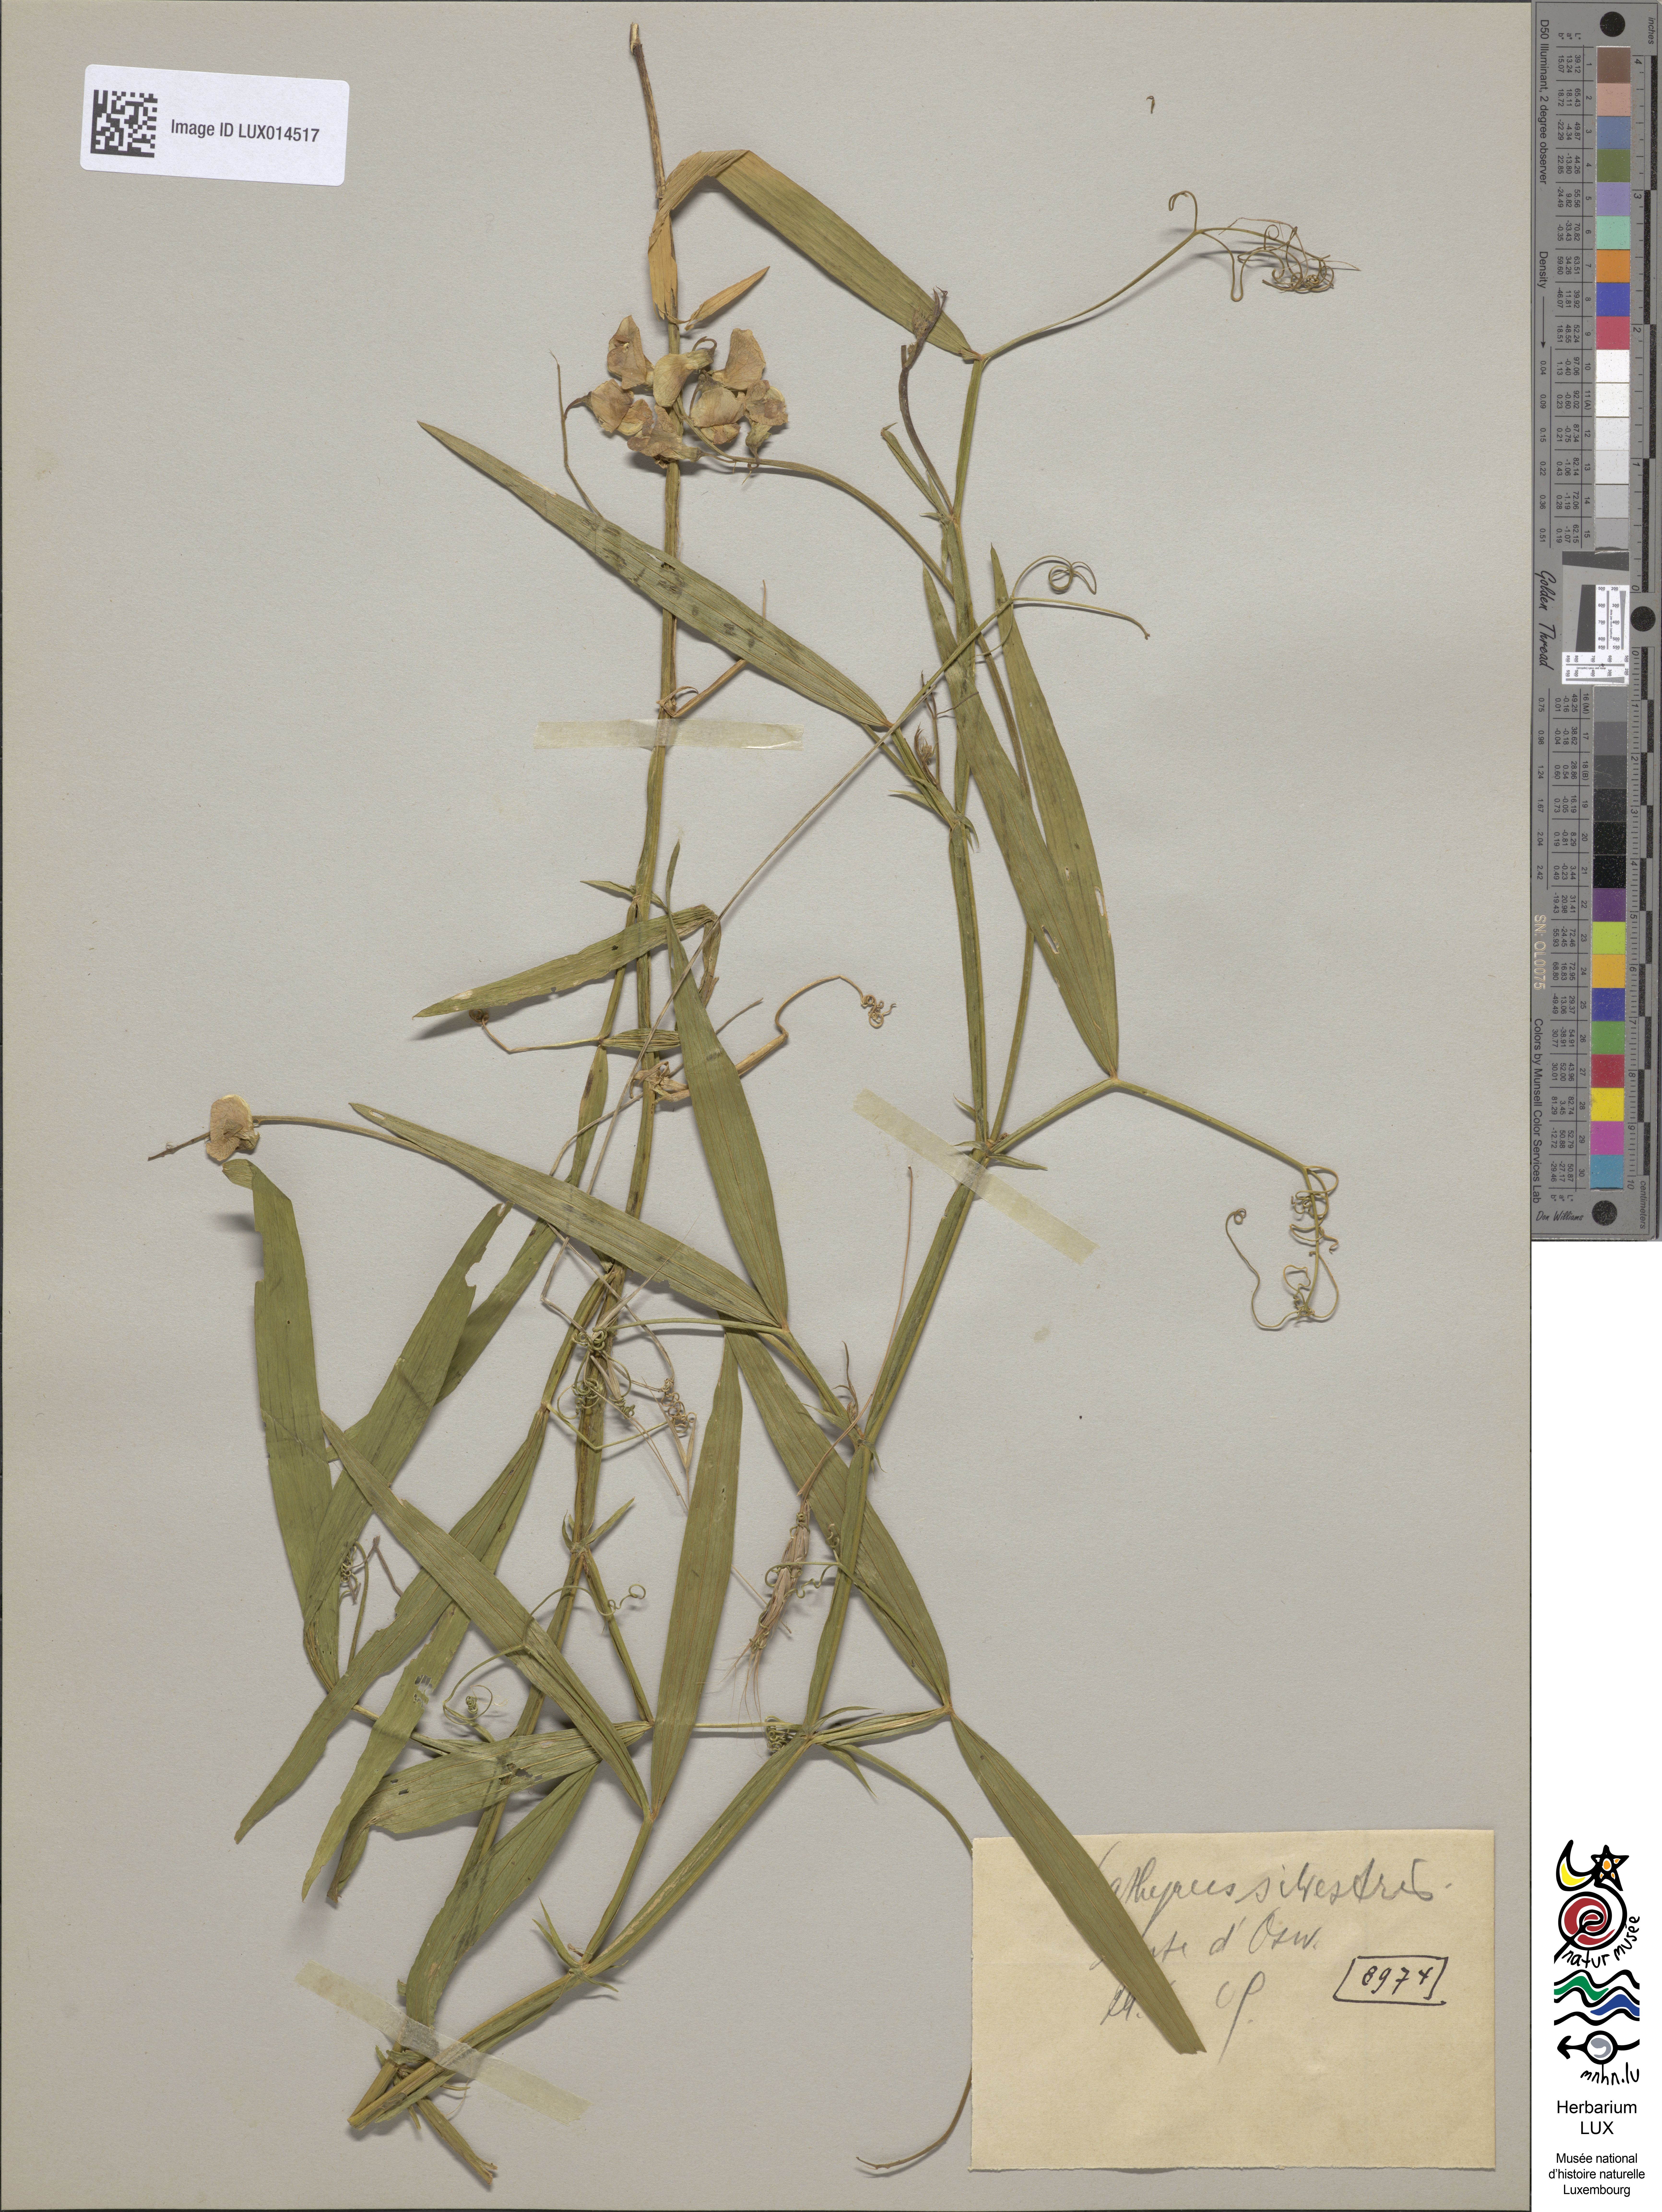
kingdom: Plantae
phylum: Tracheophyta
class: Magnoliopsida
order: Fabales
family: Fabaceae
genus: Lathyrus
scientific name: Lathyrus sylvestris
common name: Flat pea
